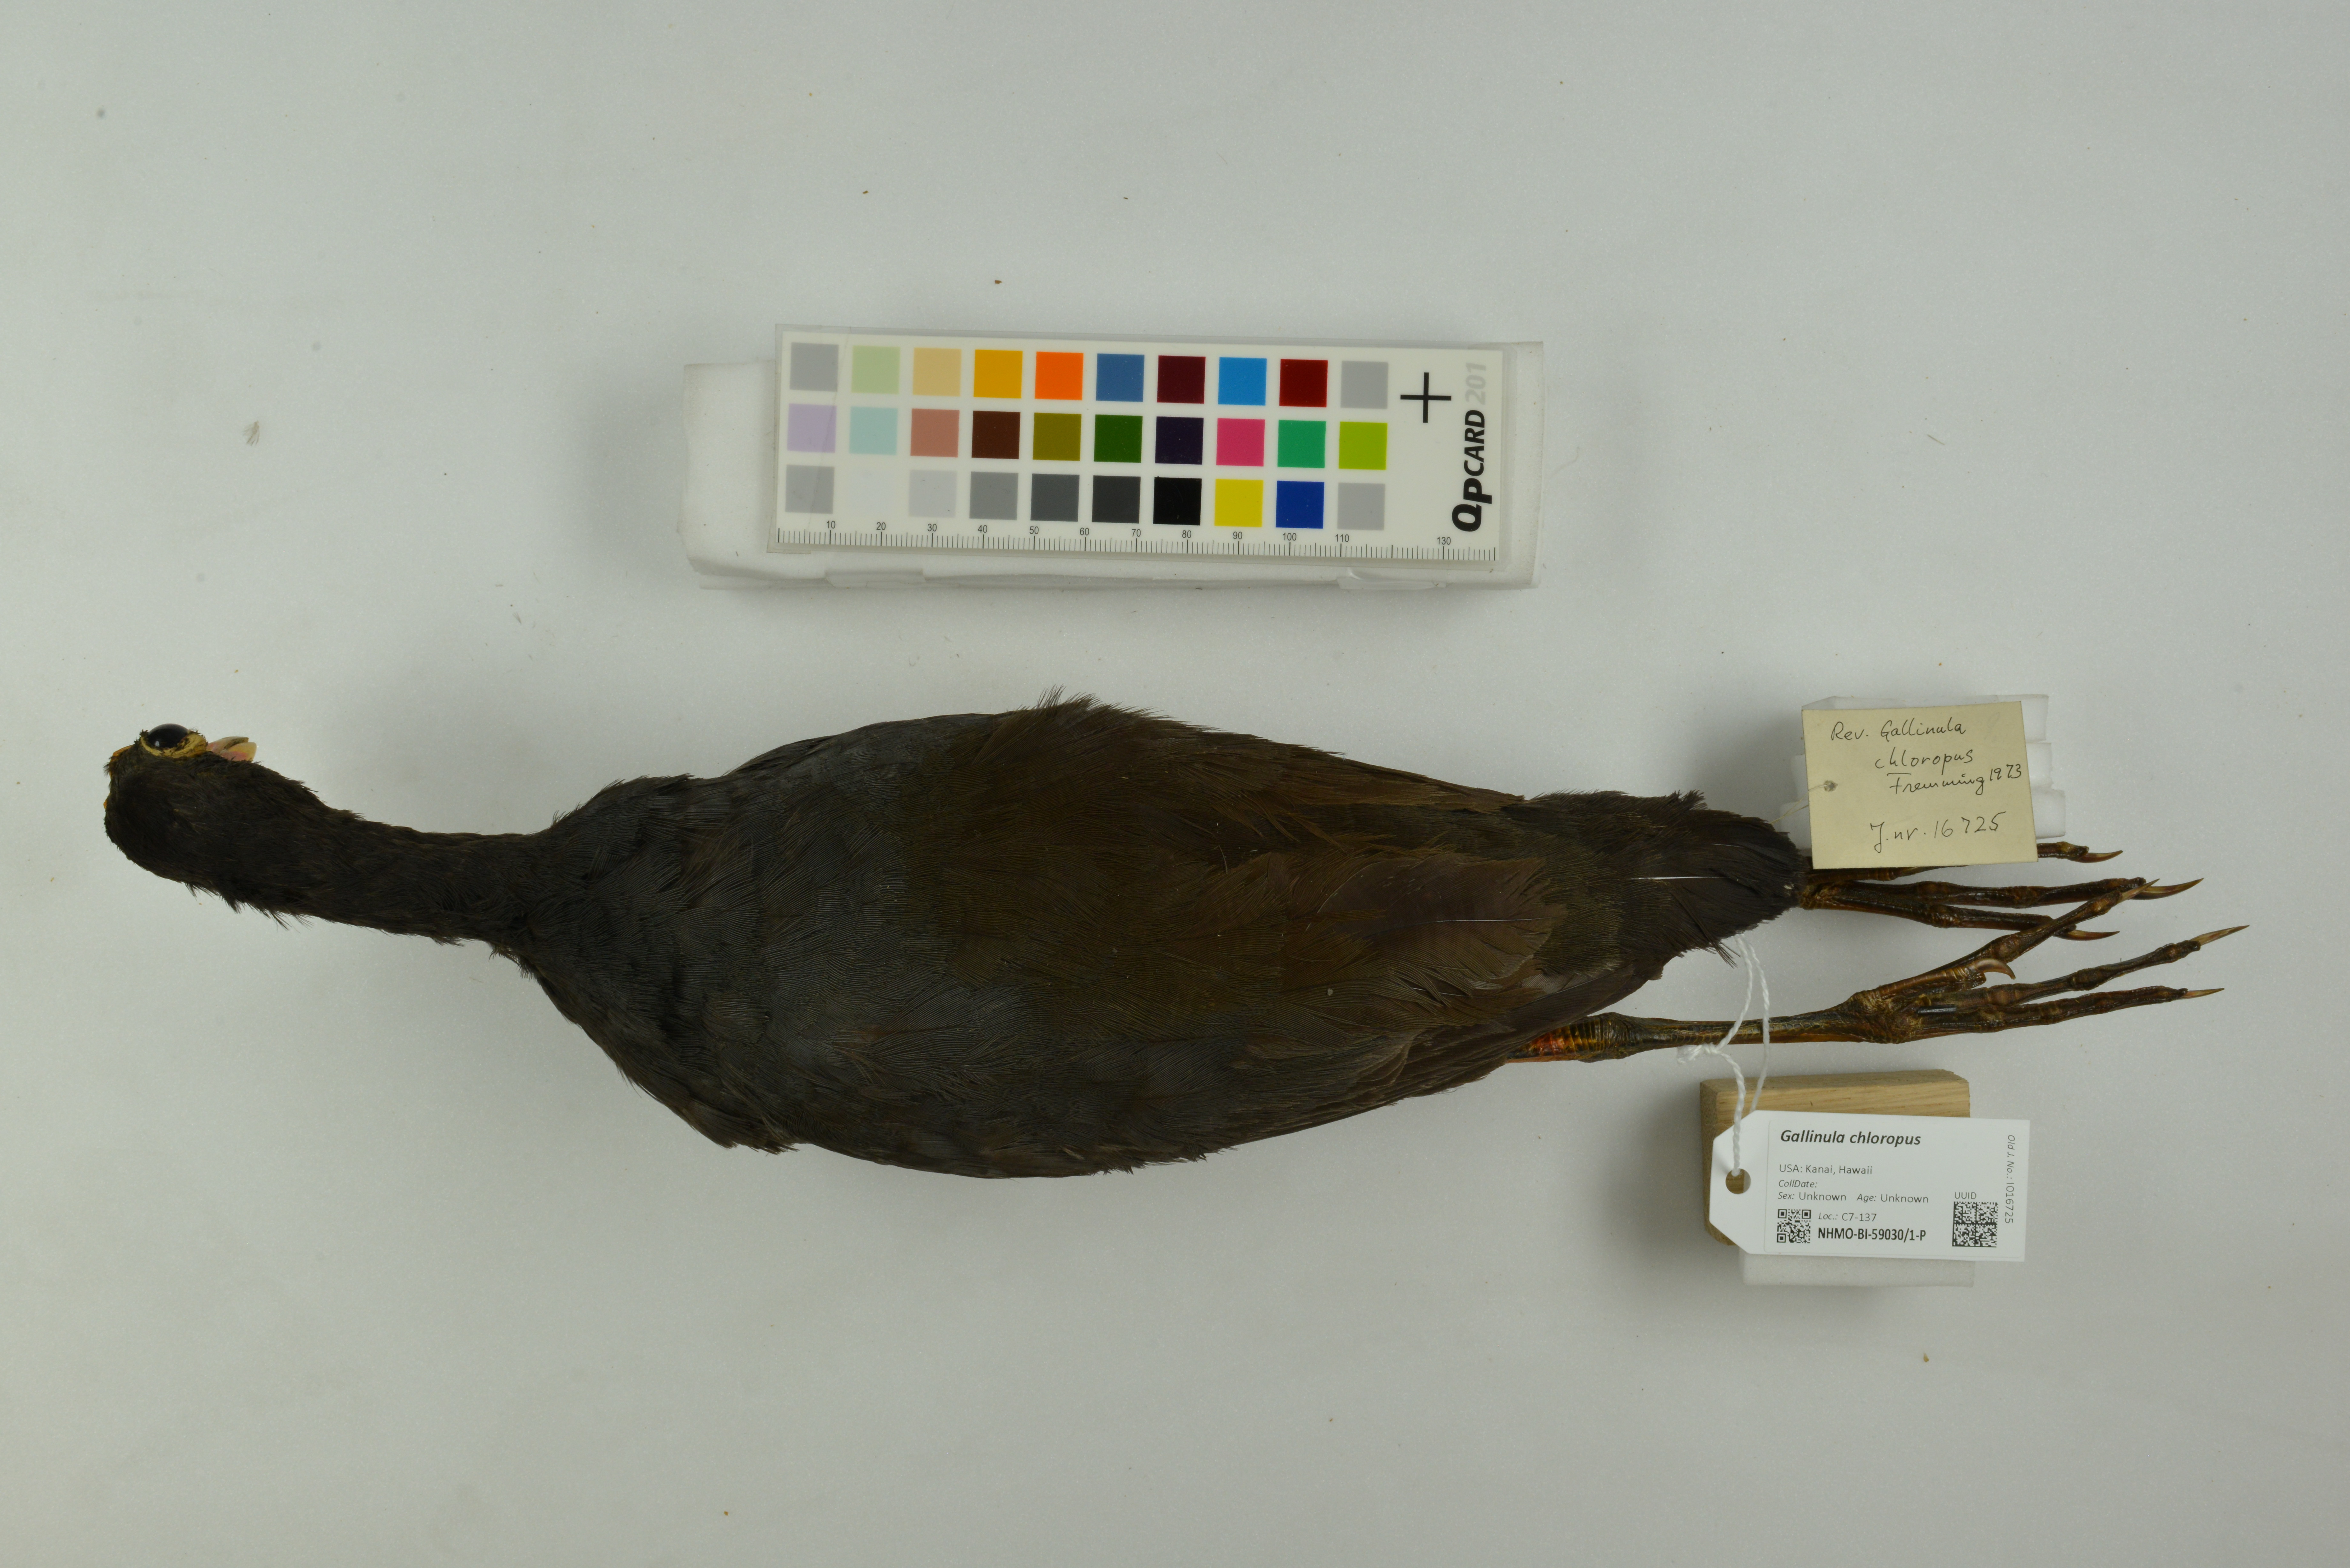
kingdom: Animalia
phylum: Chordata
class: Aves
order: Gruiformes
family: Rallidae
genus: Gallinula
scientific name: Gallinula chloropus
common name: Common moorhen
